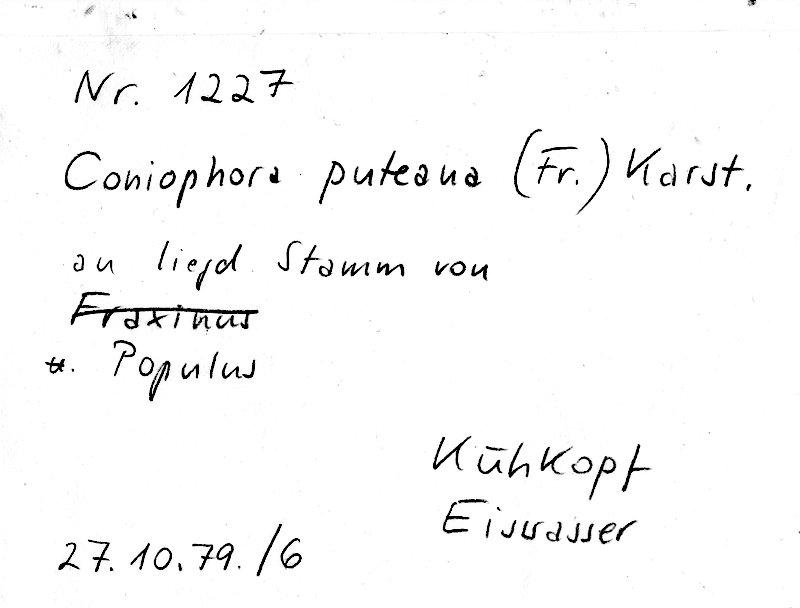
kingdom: Plantae
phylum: Tracheophyta
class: Magnoliopsida
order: Malpighiales
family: Salicaceae
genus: Populus
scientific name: Populus
